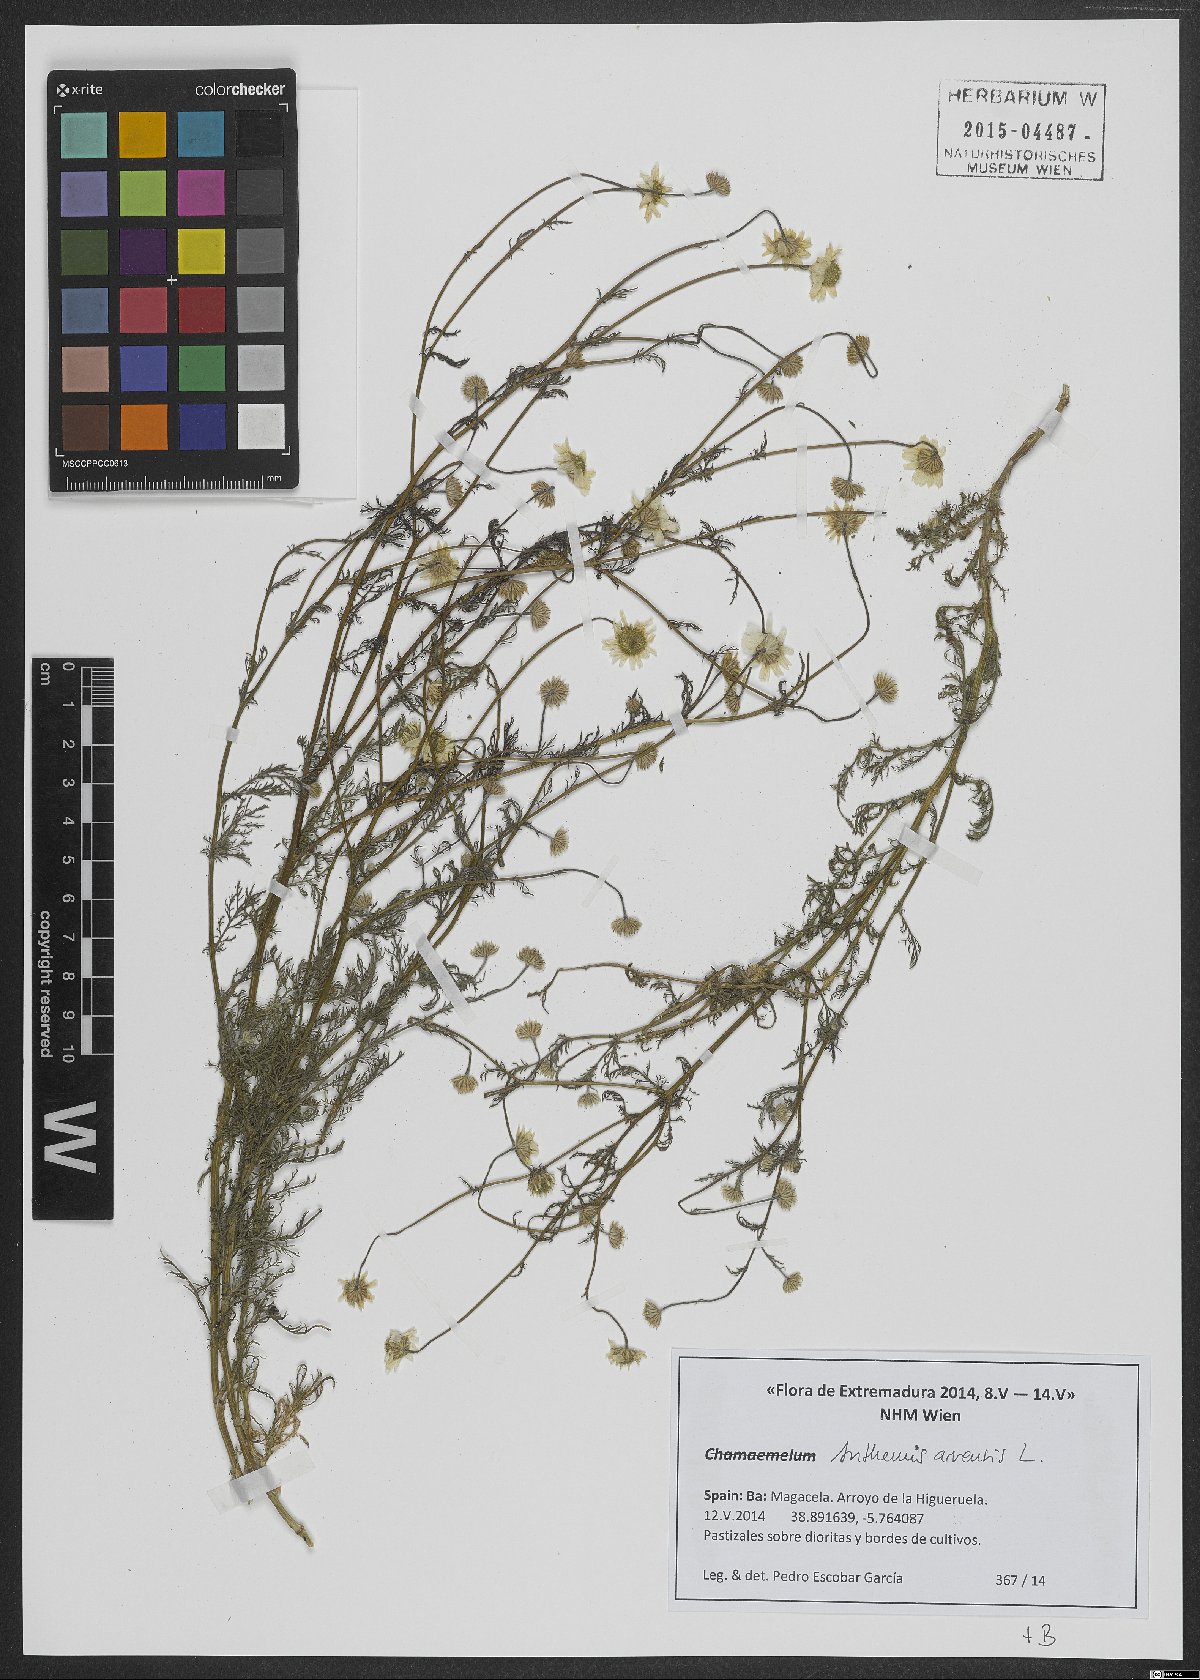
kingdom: Plantae
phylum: Tracheophyta
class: Magnoliopsida
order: Asterales
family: Asteraceae
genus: Anthemis
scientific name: Anthemis arvensis
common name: Corn chamomile
